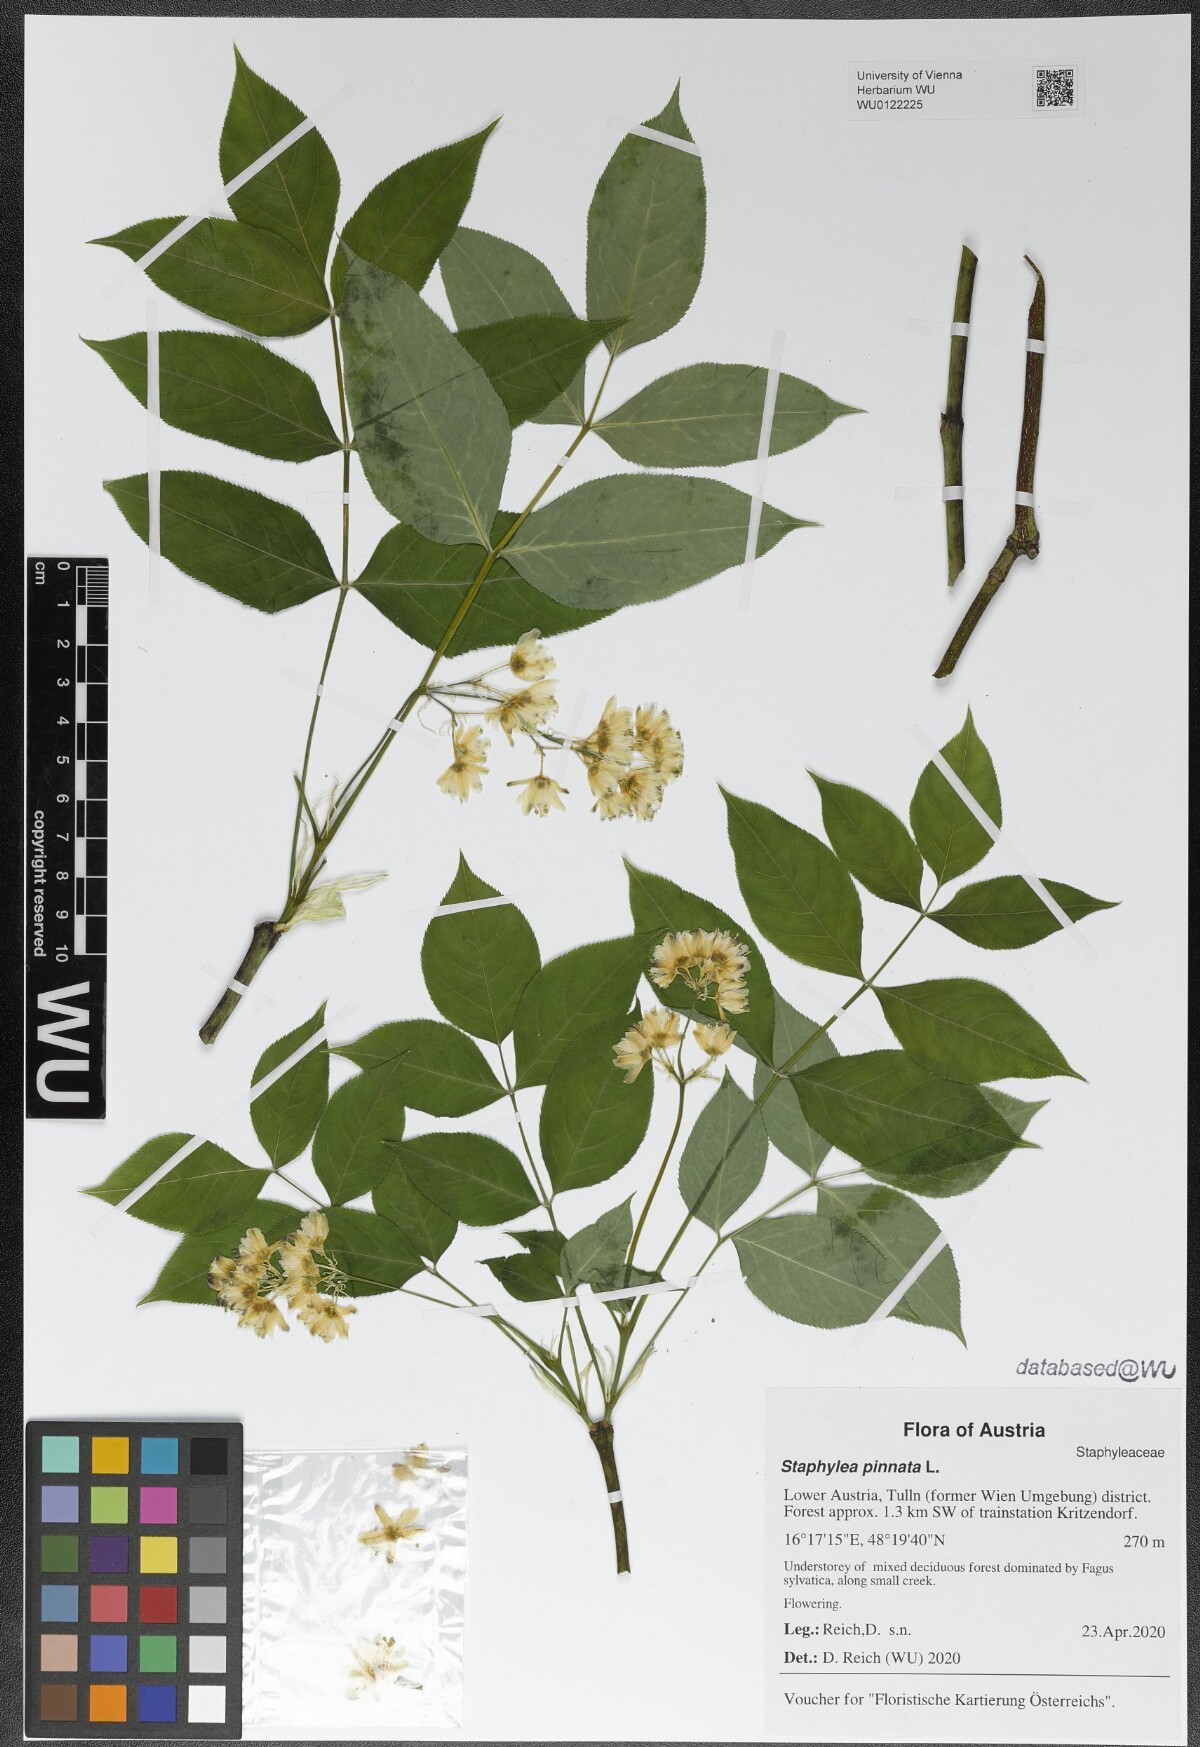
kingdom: Plantae
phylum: Tracheophyta
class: Magnoliopsida
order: Crossosomatales
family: Staphyleaceae
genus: Staphylea
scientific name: Staphylea pinnata
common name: Bladdernut
